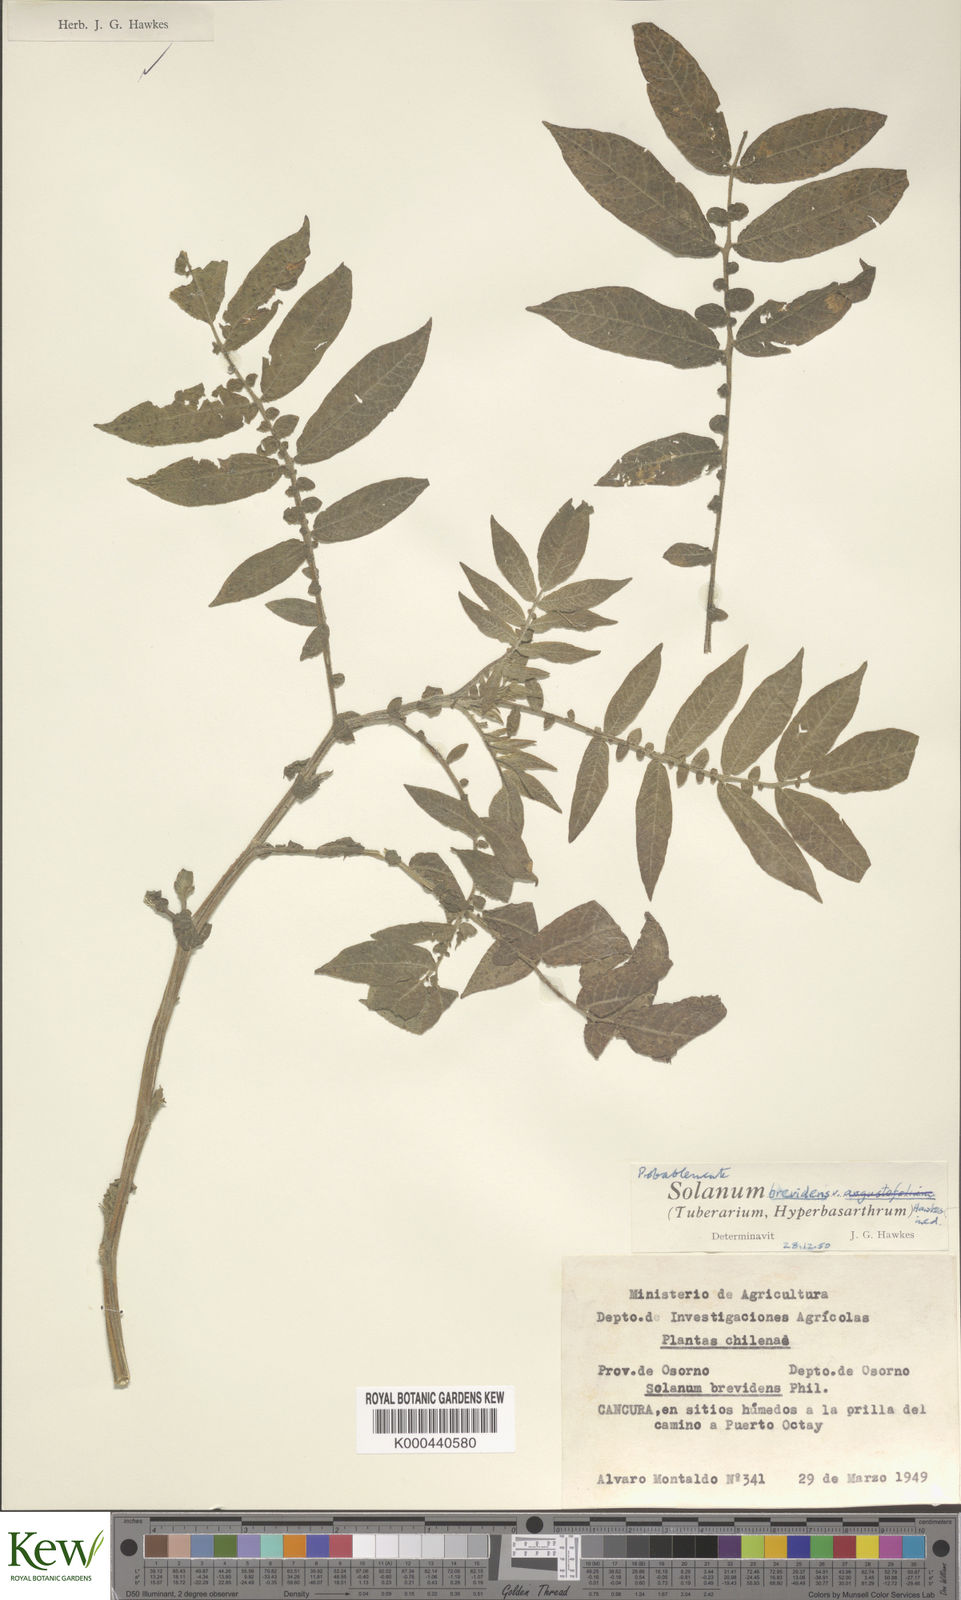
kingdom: Plantae
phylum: Tracheophyta
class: Magnoliopsida
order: Solanales
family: Solanaceae
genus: Solanum
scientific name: Solanum palustre
